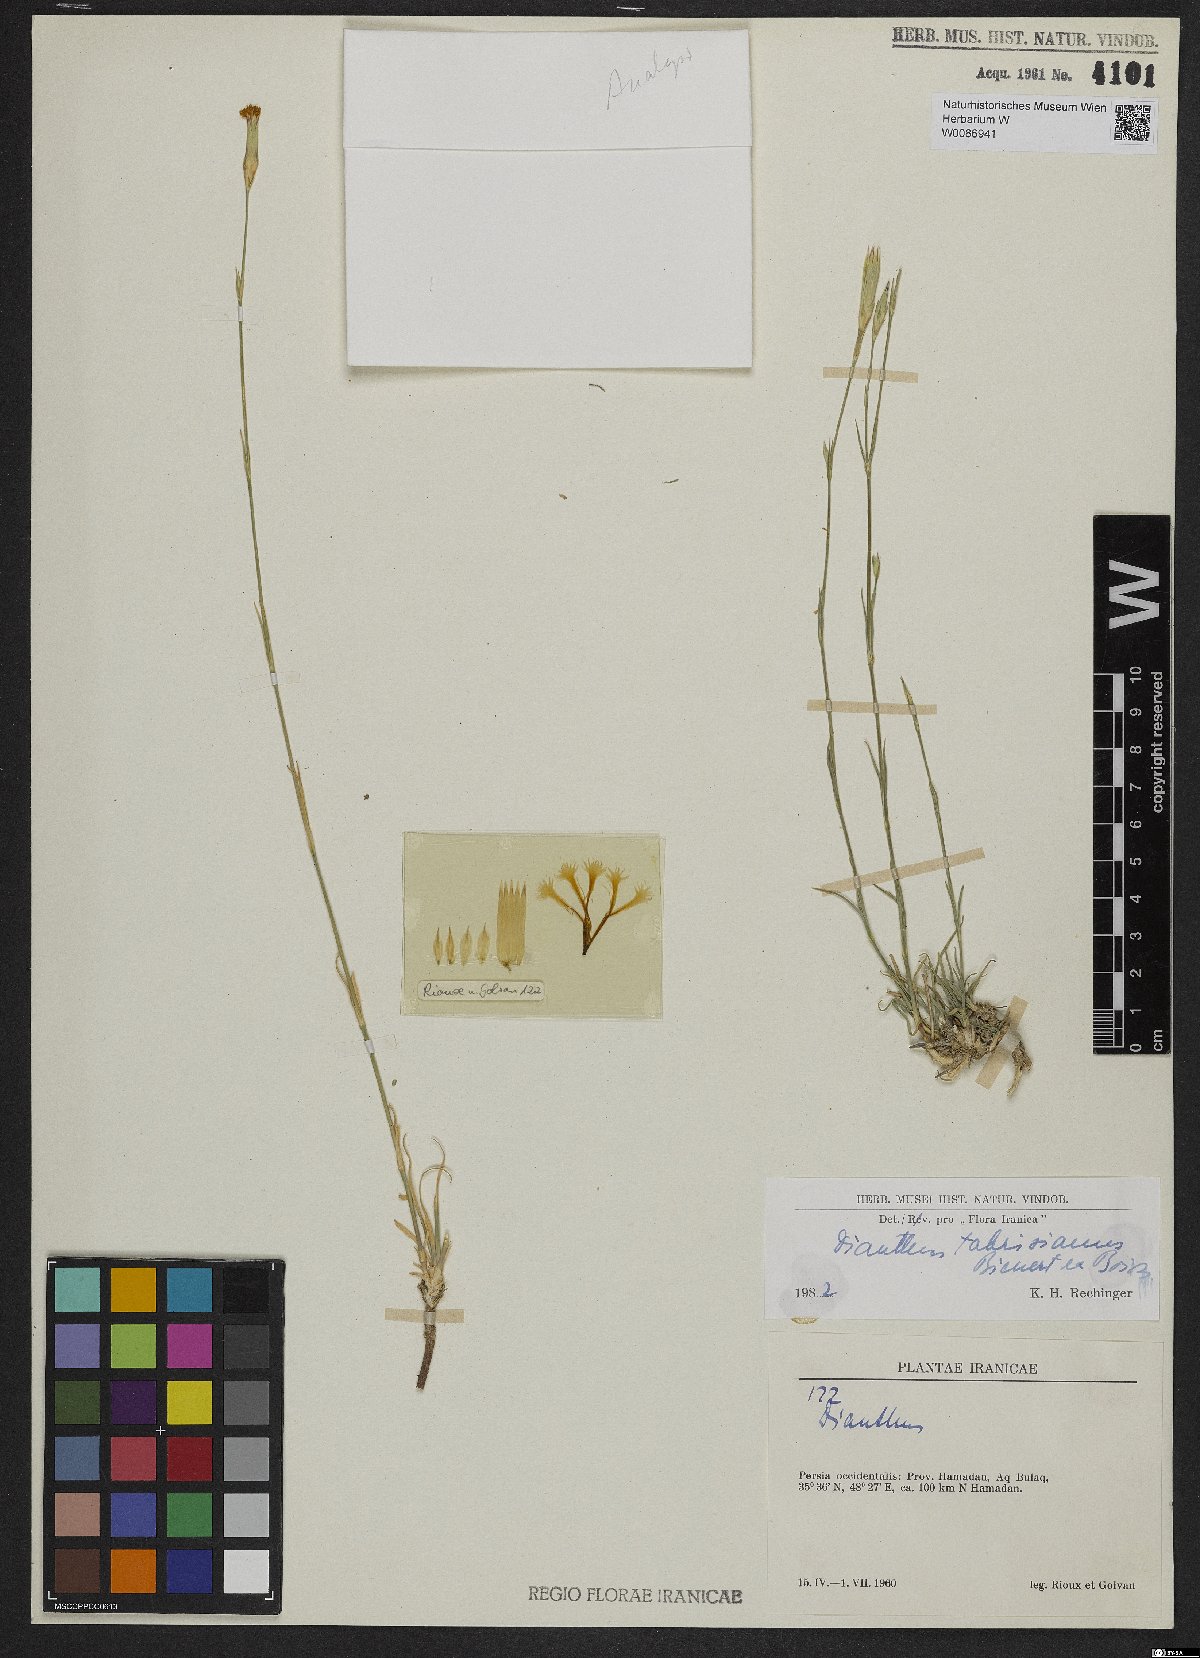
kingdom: Plantae
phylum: Tracheophyta
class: Magnoliopsida
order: Caryophyllales
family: Caryophyllaceae
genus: Dianthus
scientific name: Dianthus tabrisianus
